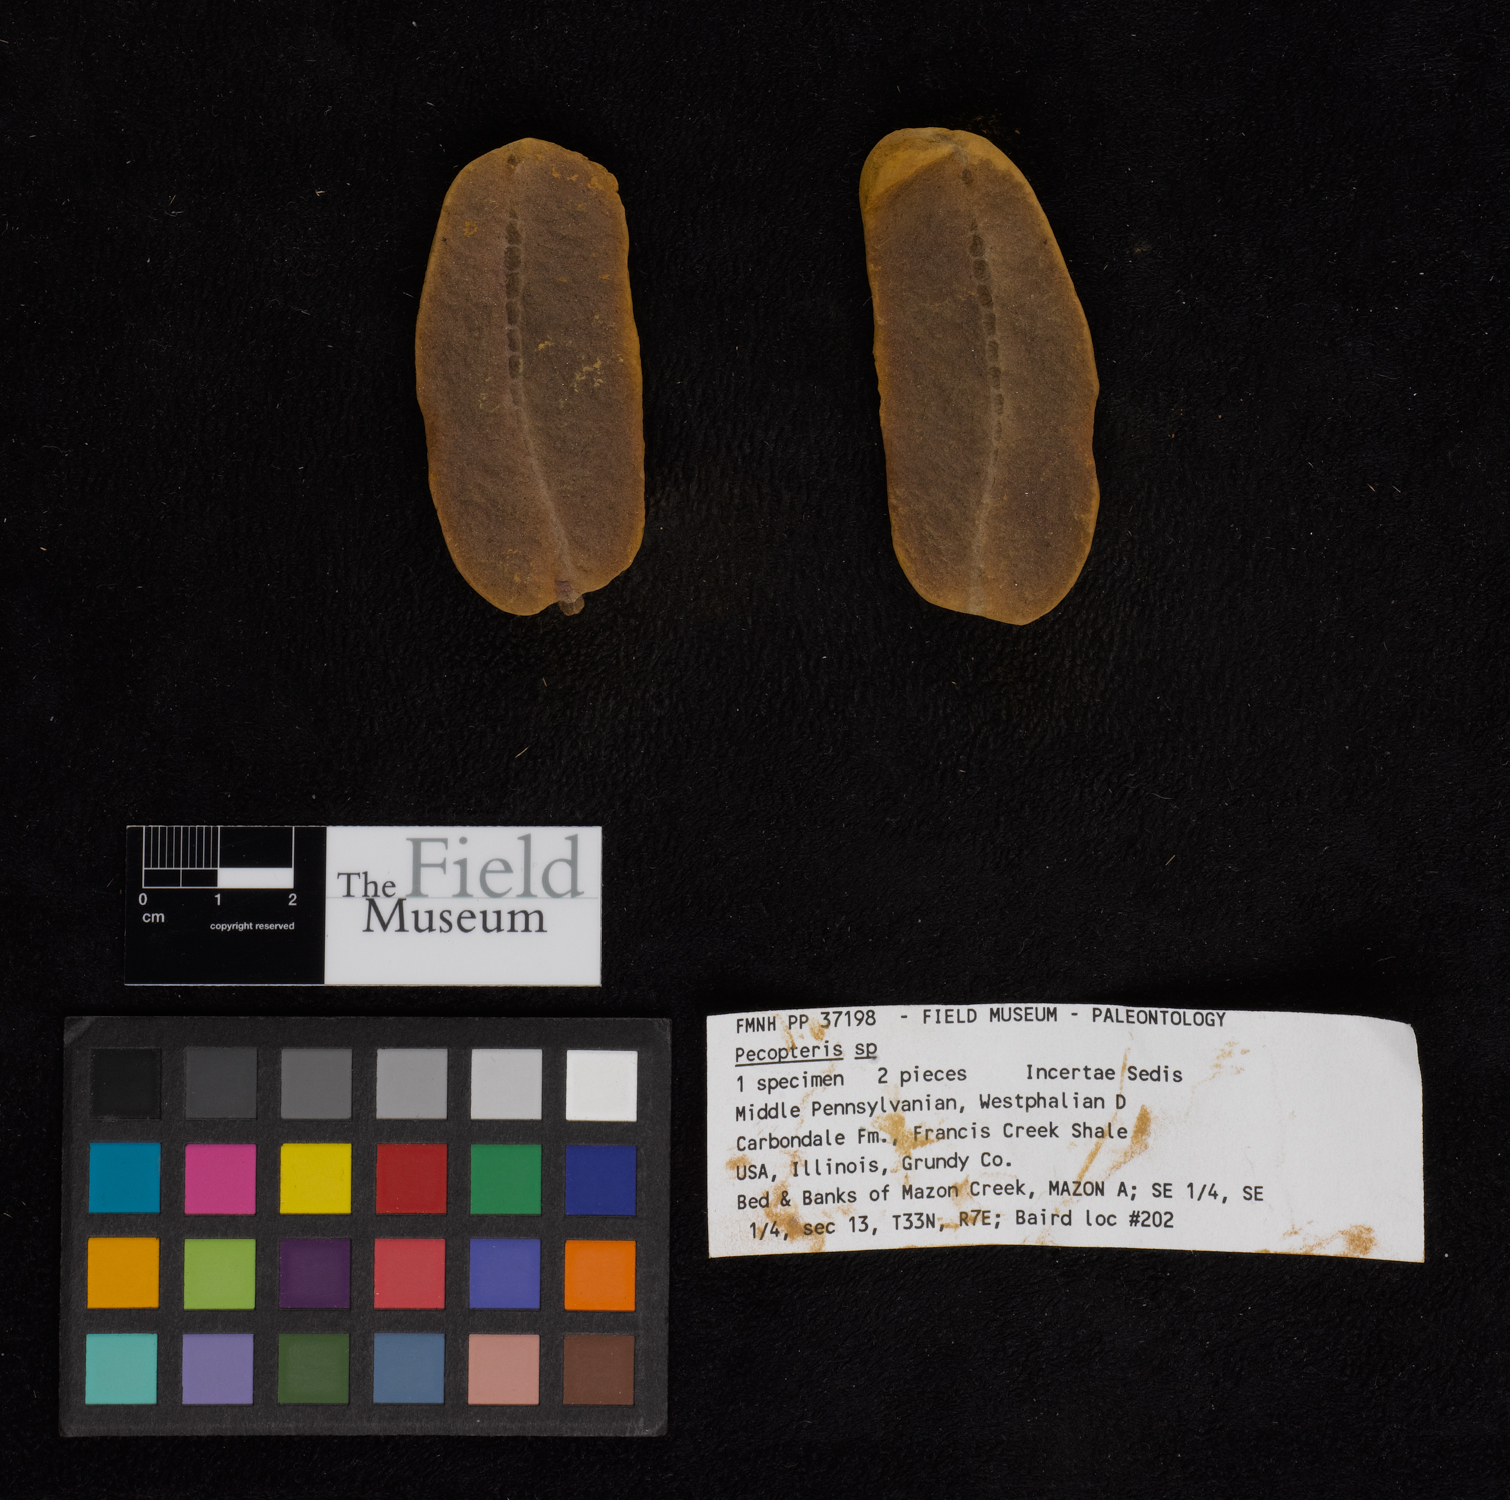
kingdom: Plantae
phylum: Tracheophyta
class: Polypodiopsida
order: Marattiales
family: Asterothecaceae
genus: Pecopteris
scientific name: Pecopteris
